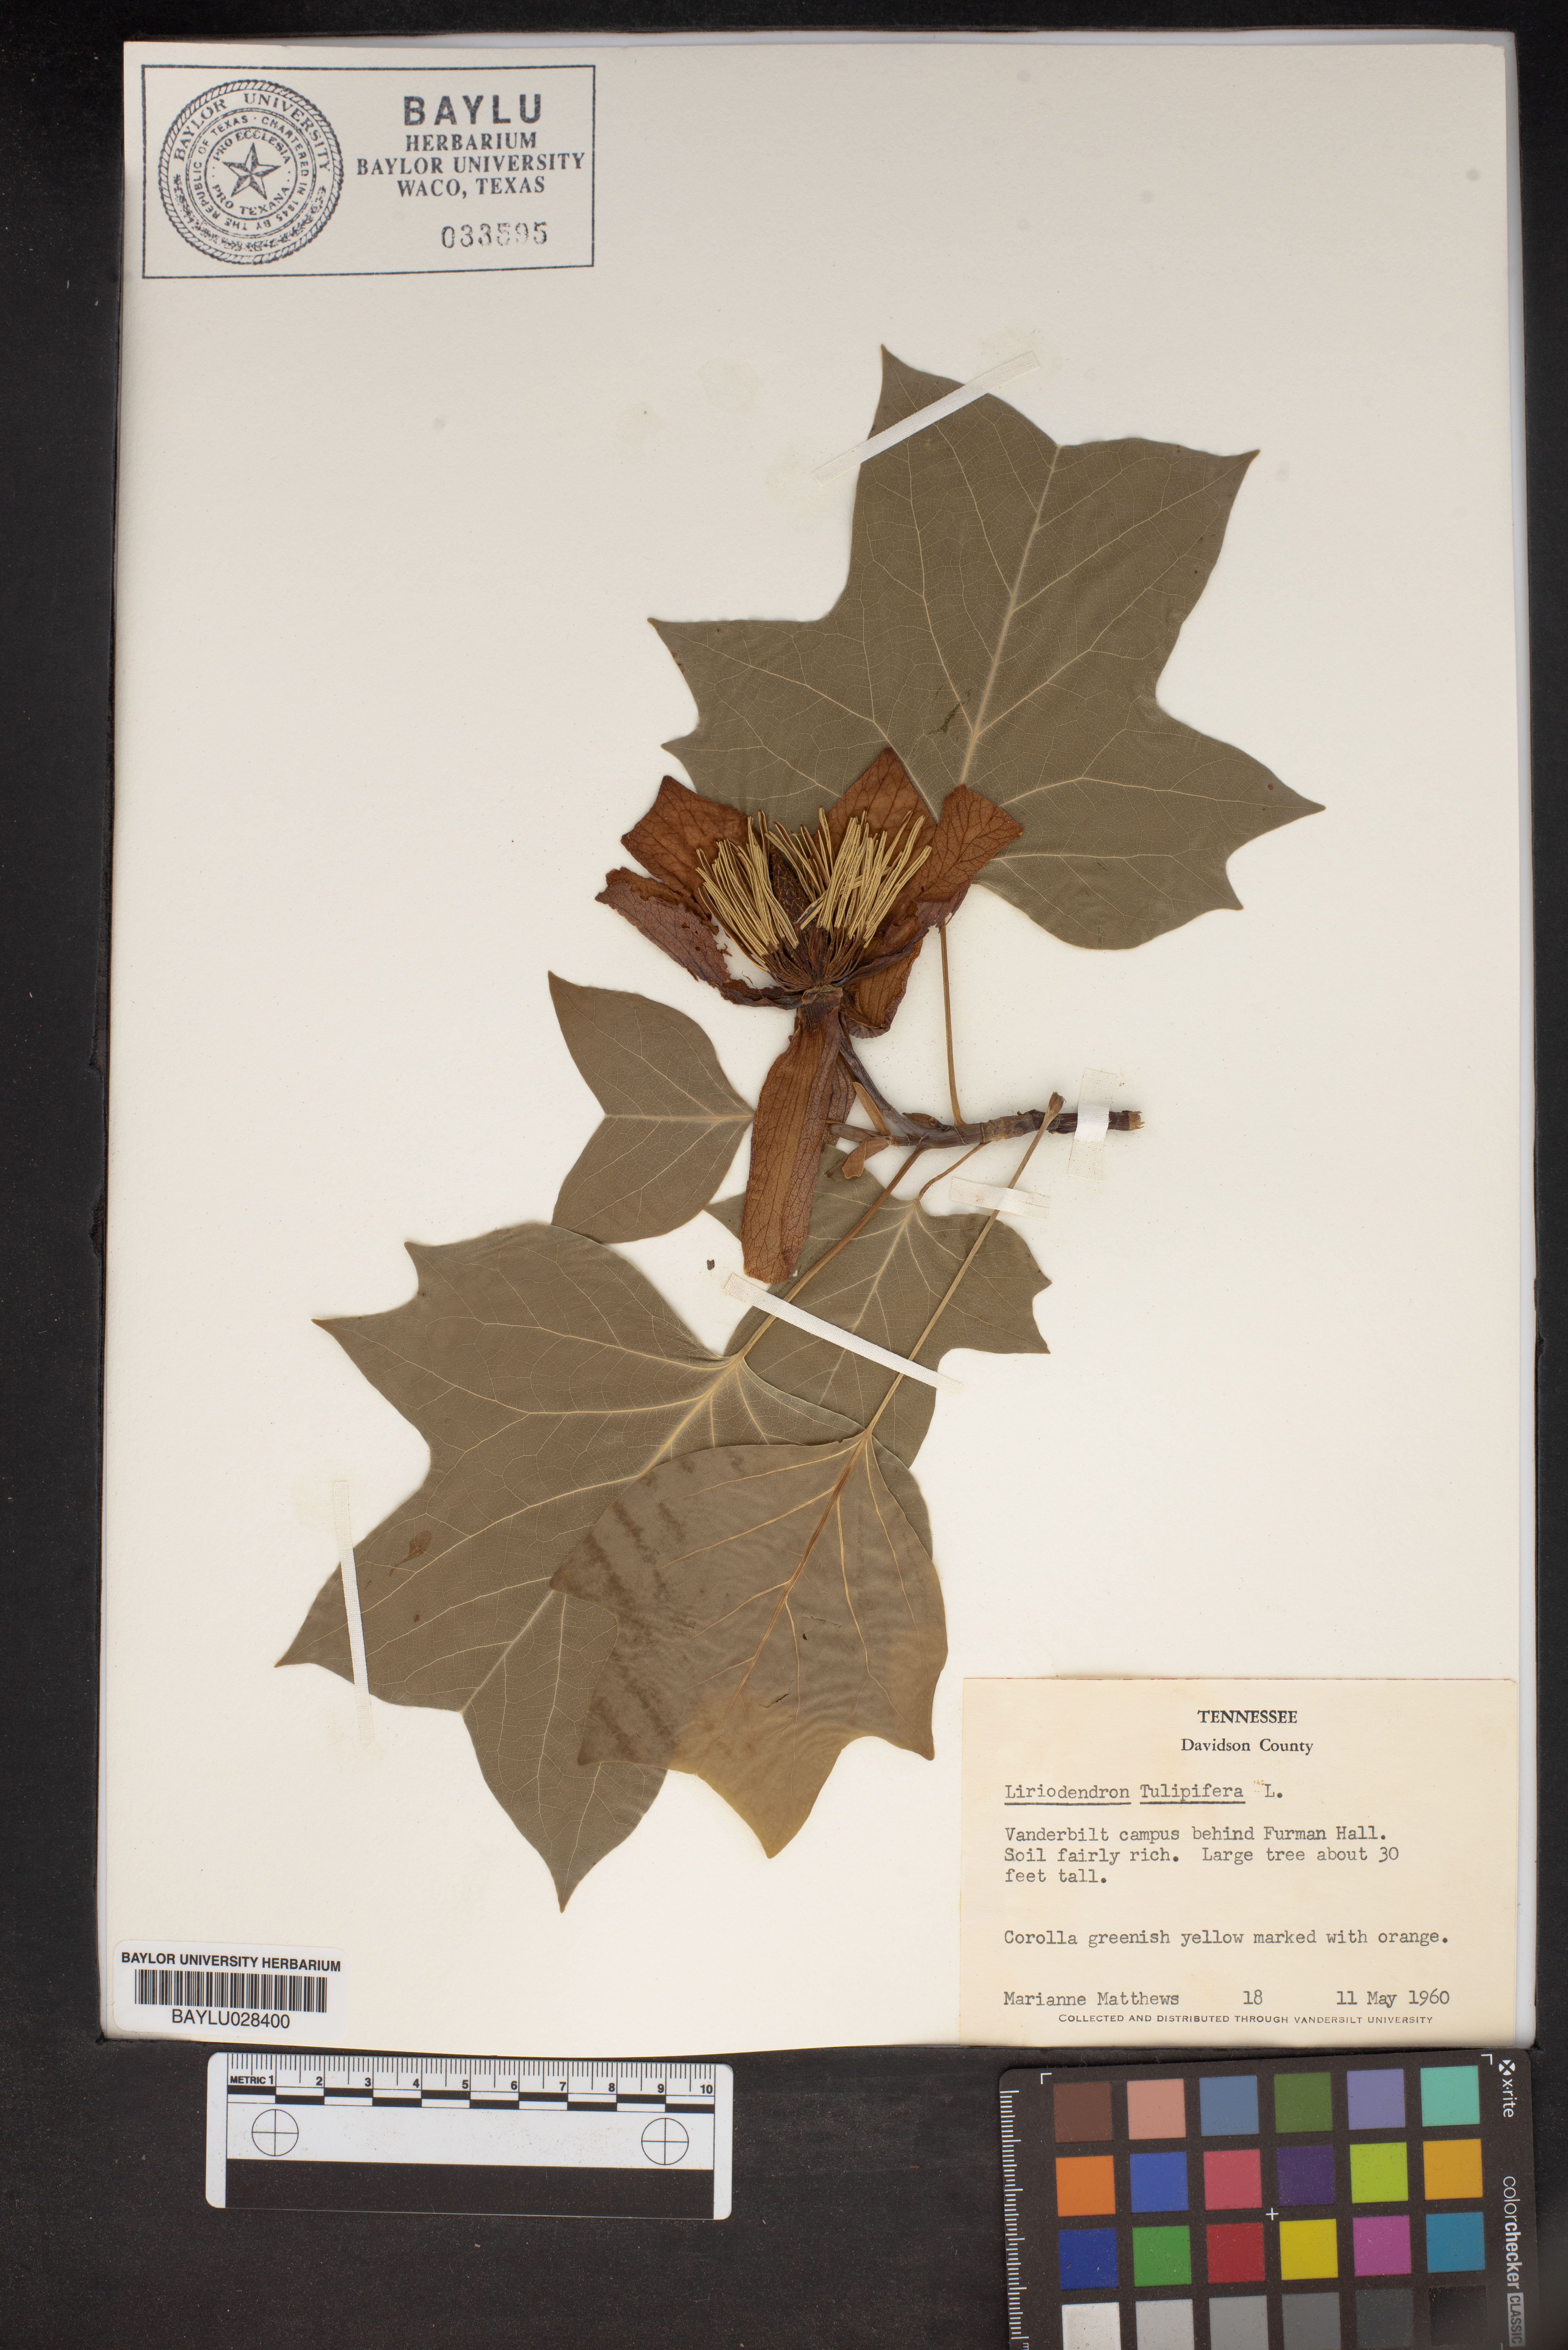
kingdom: Plantae
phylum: Tracheophyta
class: Magnoliopsida
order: Magnoliales
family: Magnoliaceae
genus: Liriodendron
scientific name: Liriodendron tulipifera
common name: Tulip tree
